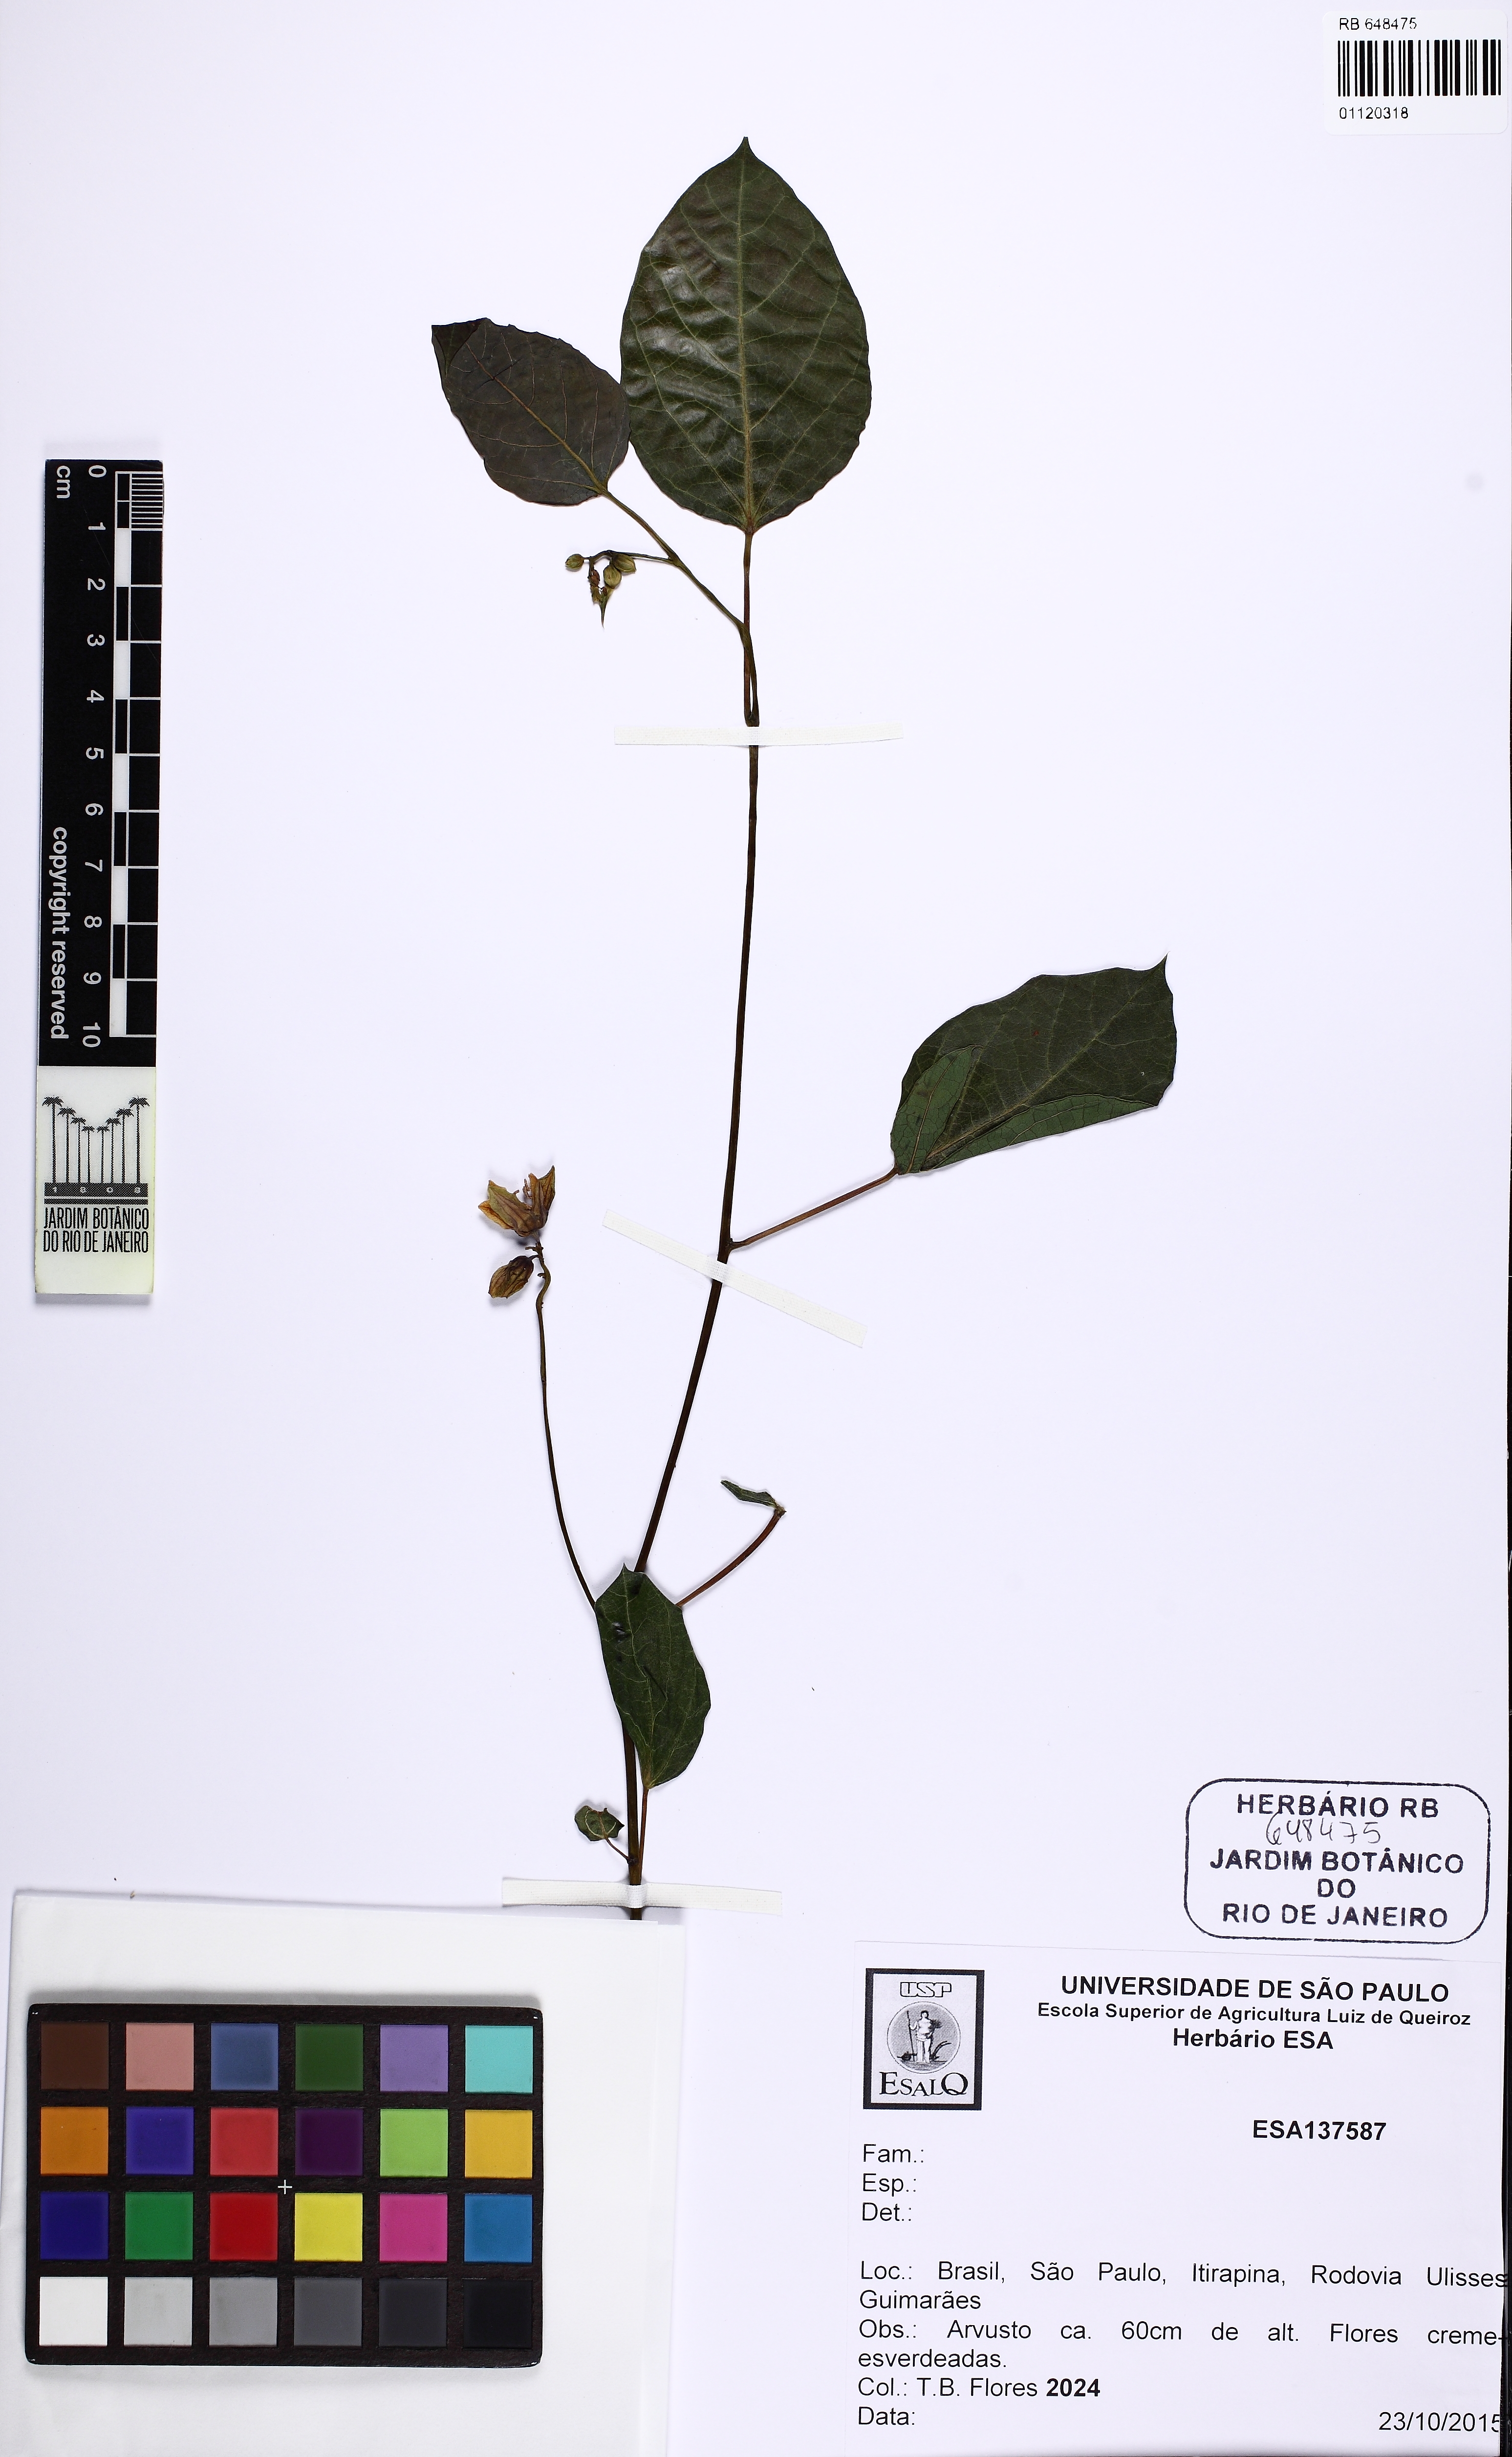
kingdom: Plantae
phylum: Tracheophyta
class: Magnoliopsida
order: Malvales
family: Malvaceae
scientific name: Malvaceae
